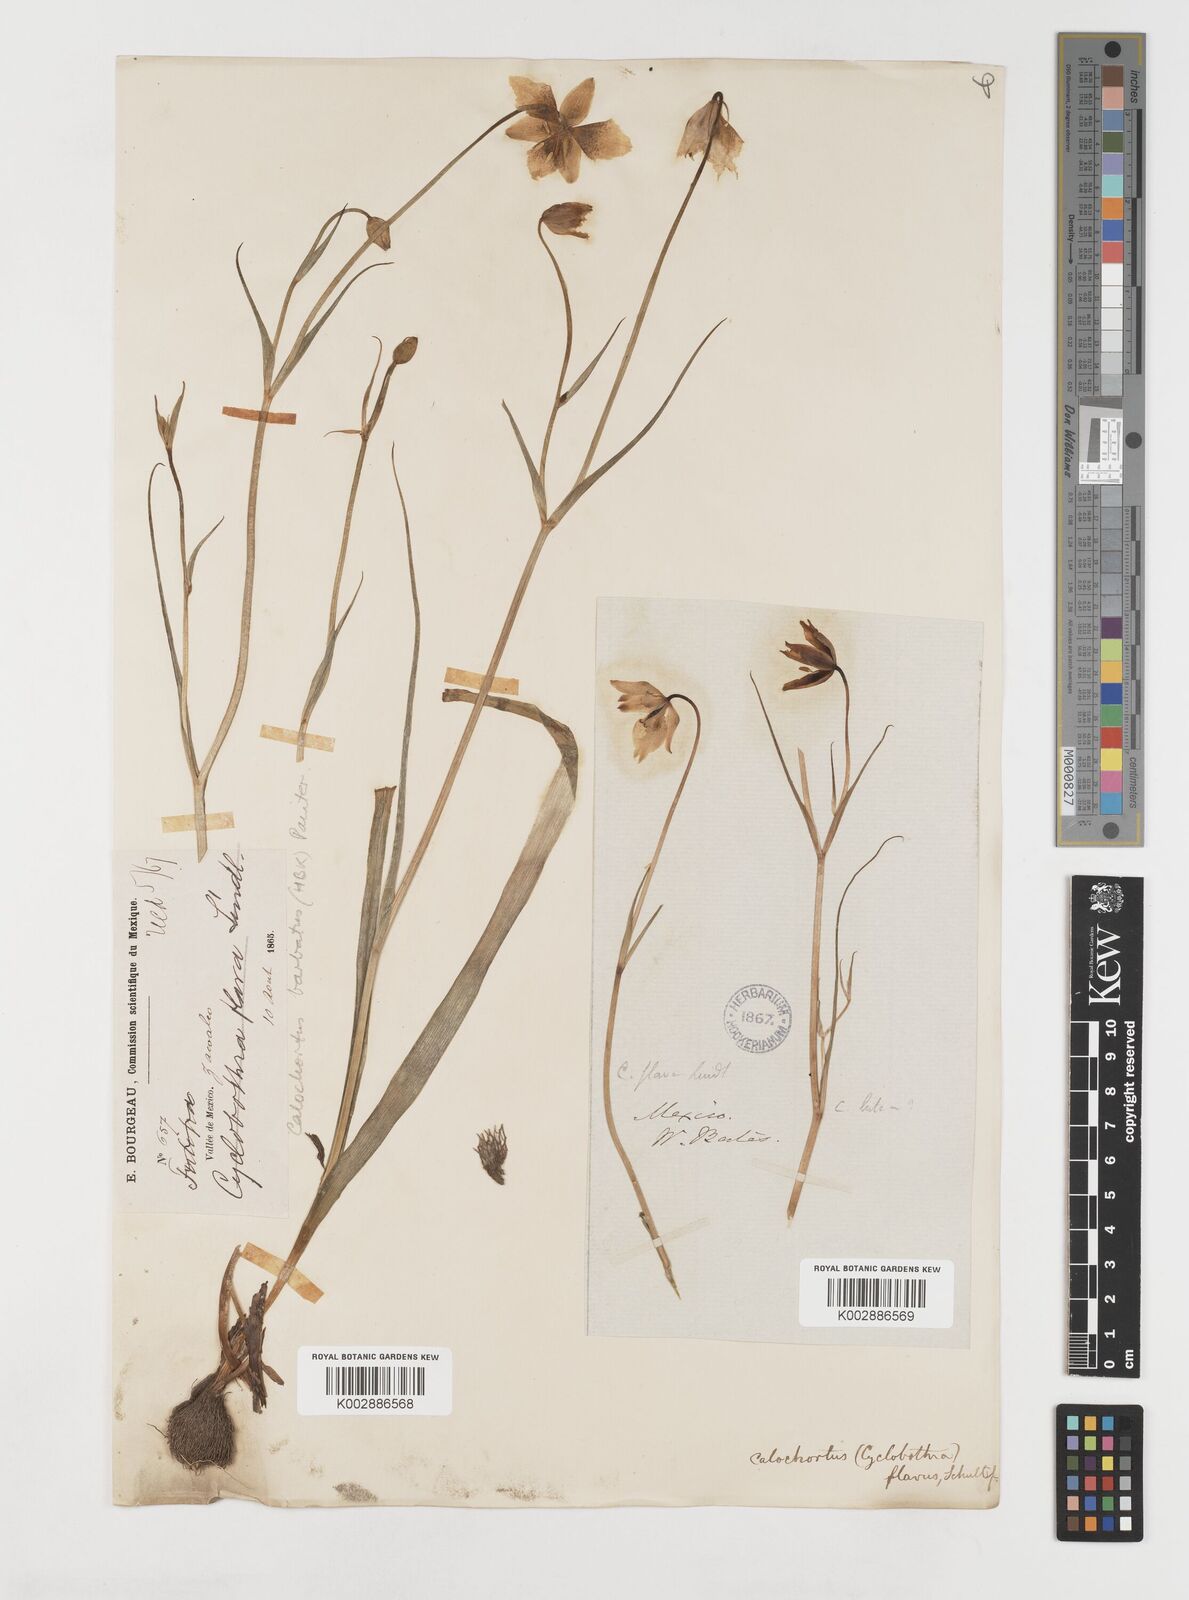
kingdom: Plantae
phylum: Tracheophyta
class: Liliopsida
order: Liliales
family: Liliaceae
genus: Calochortus
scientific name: Calochortus barbatus
